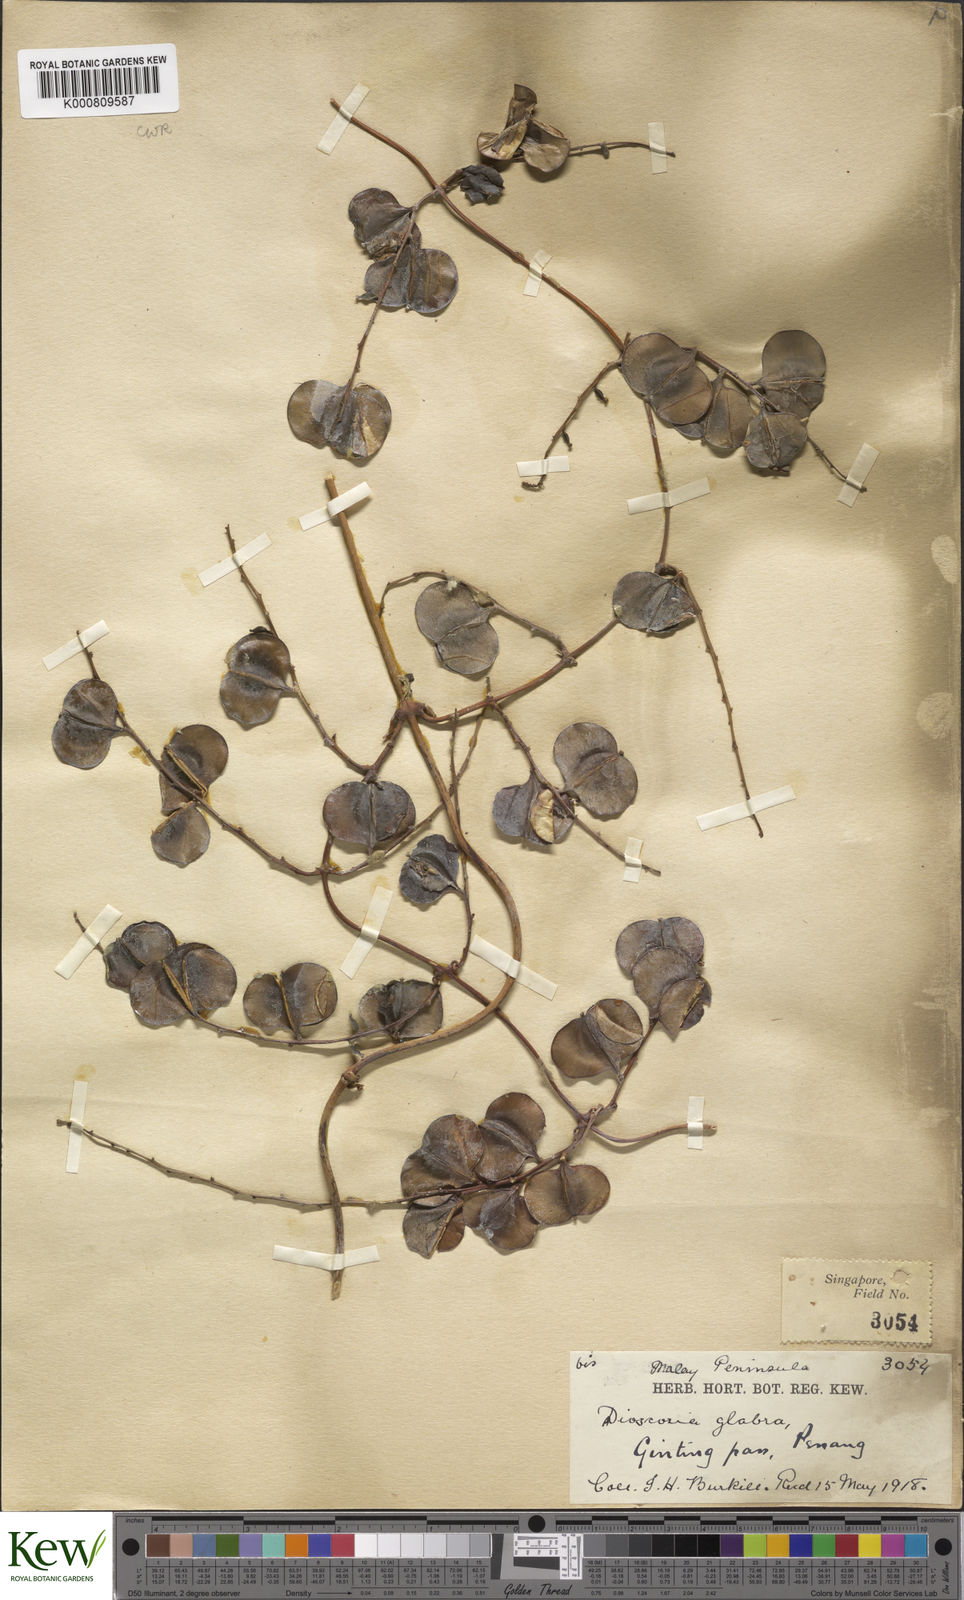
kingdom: Plantae
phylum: Tracheophyta
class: Liliopsida
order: Dioscoreales
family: Dioscoreaceae
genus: Dioscorea
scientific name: Dioscorea glabra
